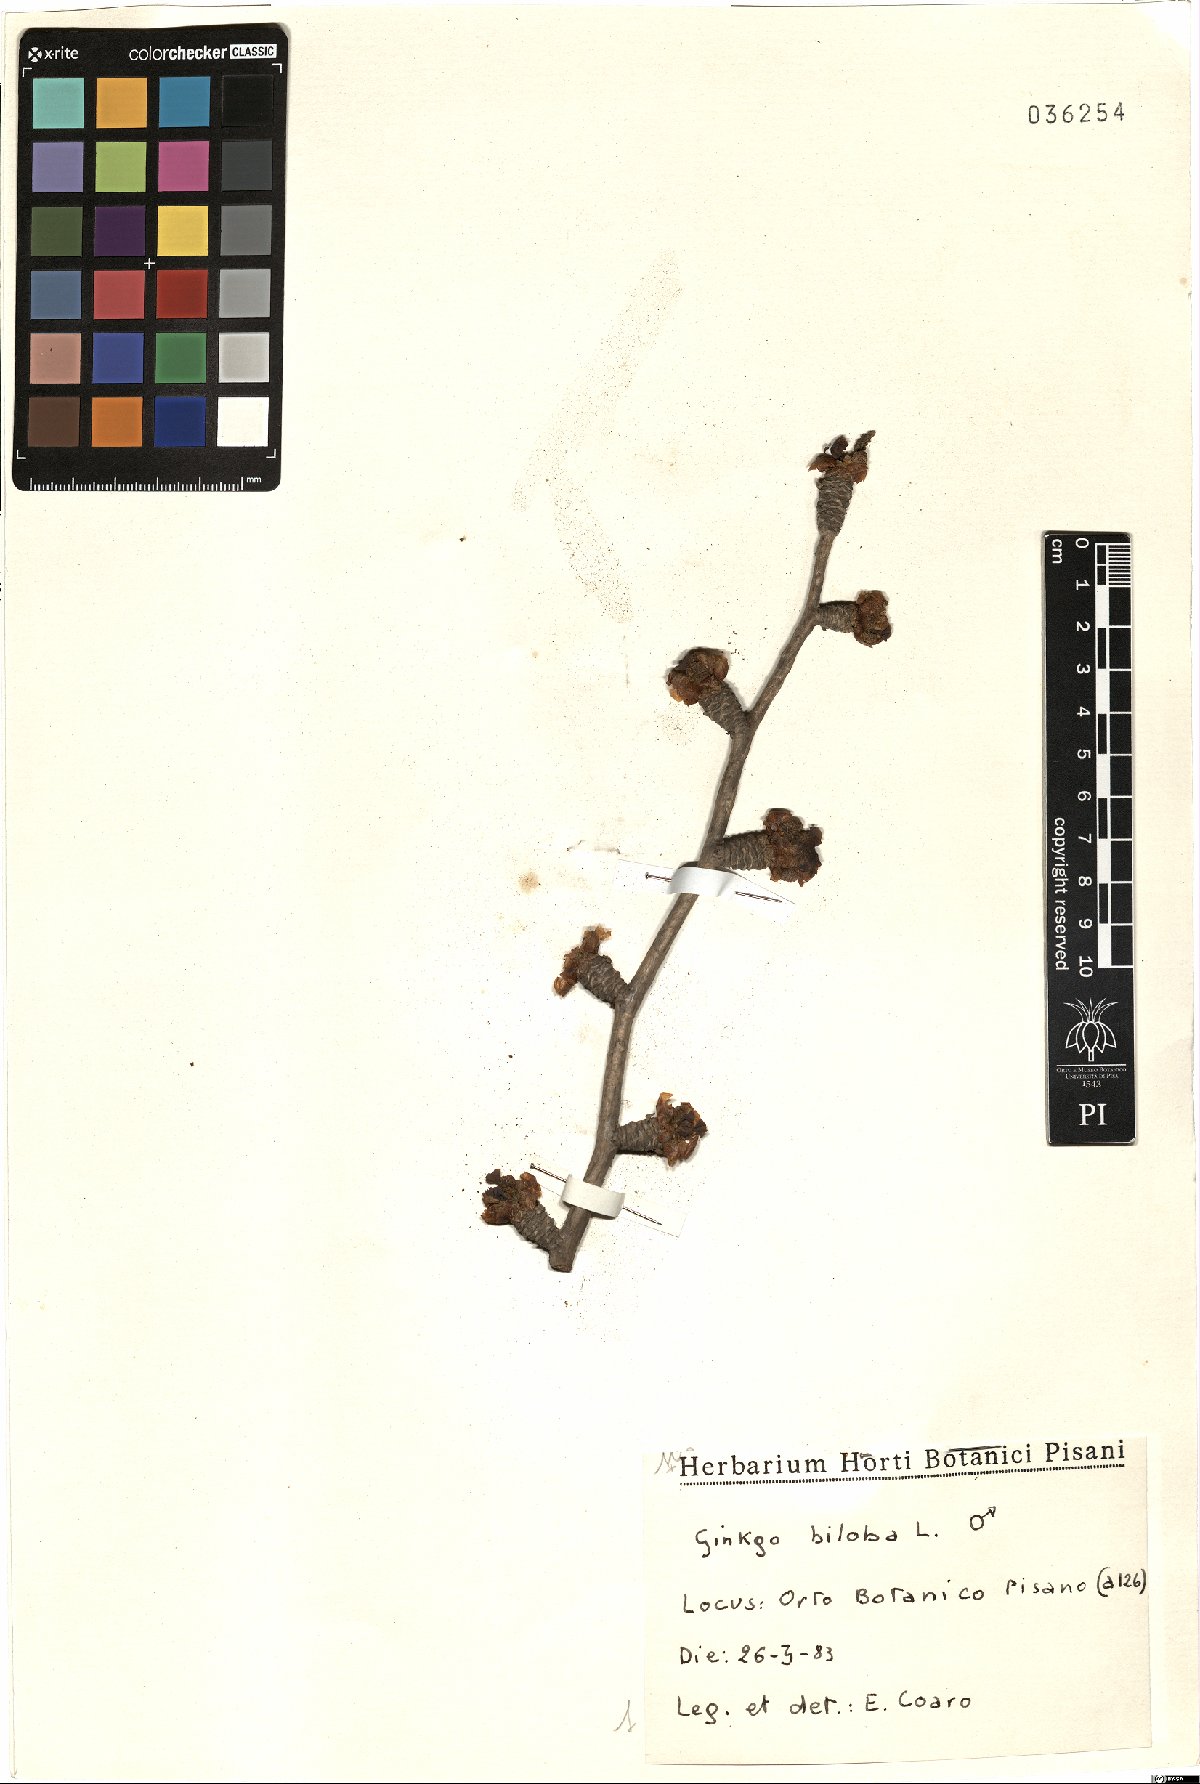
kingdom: Plantae
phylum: Tracheophyta
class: Ginkgoopsida
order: Ginkgoales
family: Ginkgoaceae
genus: Ginkgo
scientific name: Ginkgo biloba
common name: Ginkgo
